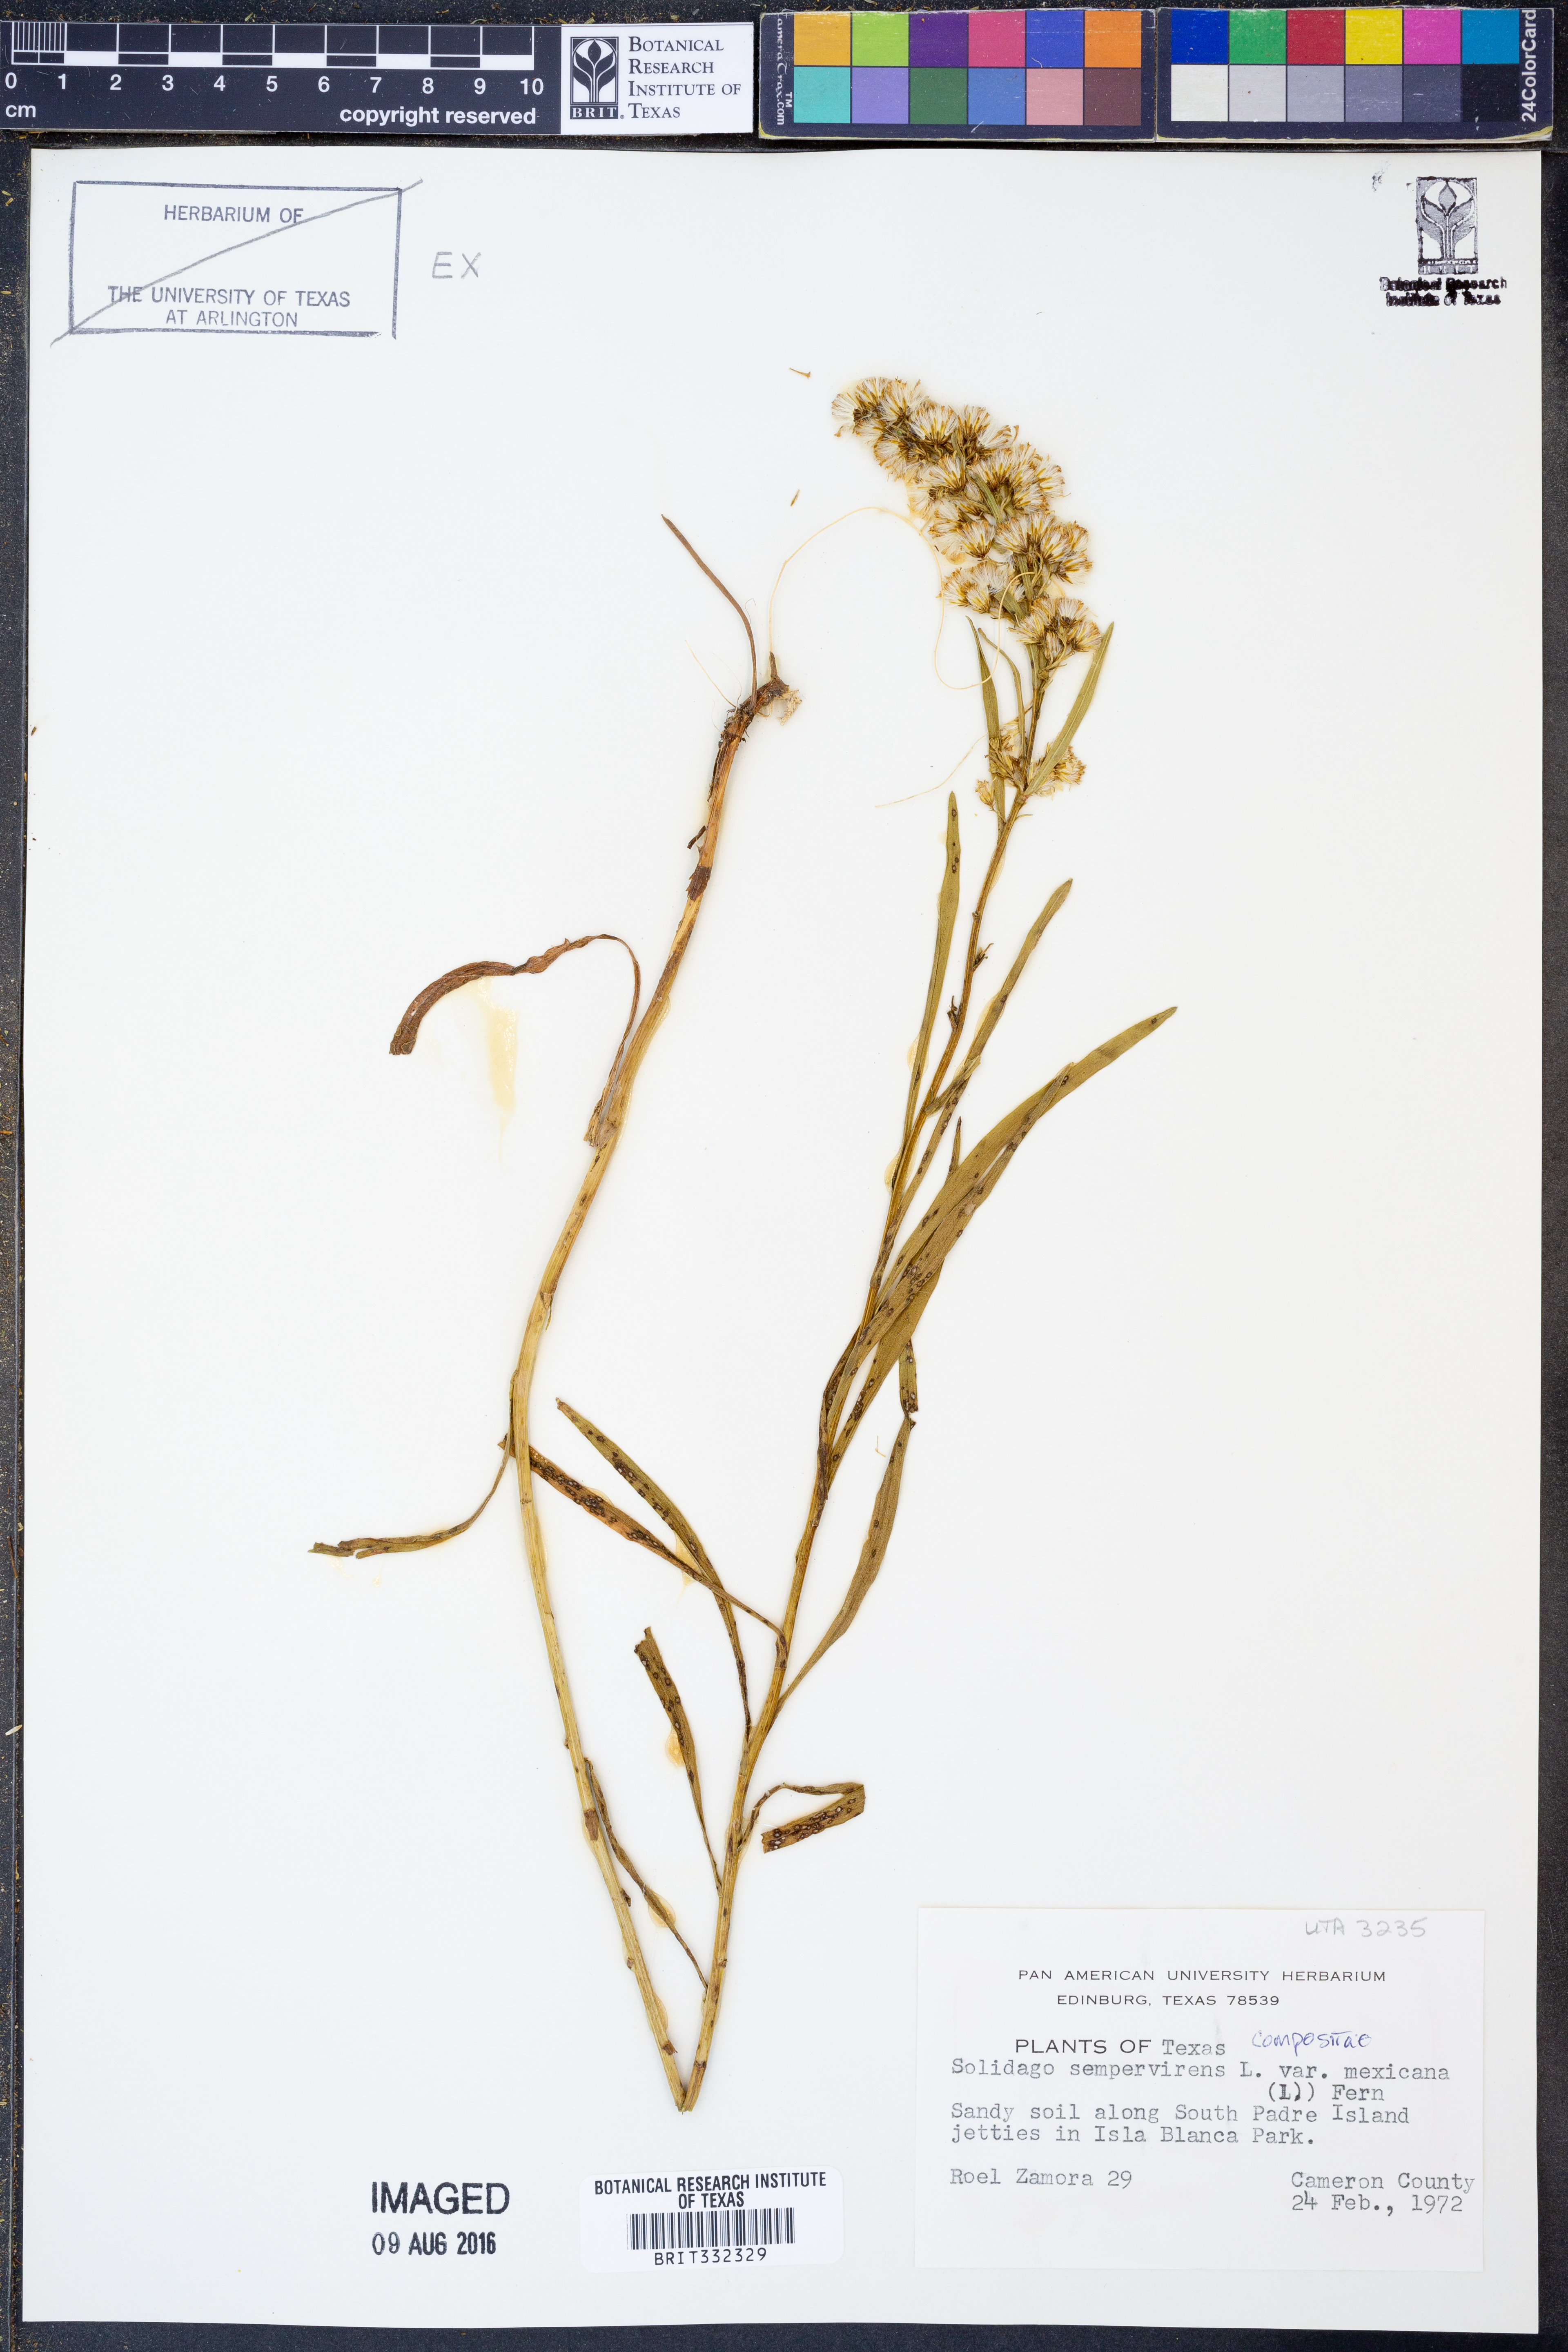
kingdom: Plantae
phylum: Tracheophyta
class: Magnoliopsida
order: Asterales
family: Asteraceae
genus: Solidago
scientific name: Solidago mexicana
